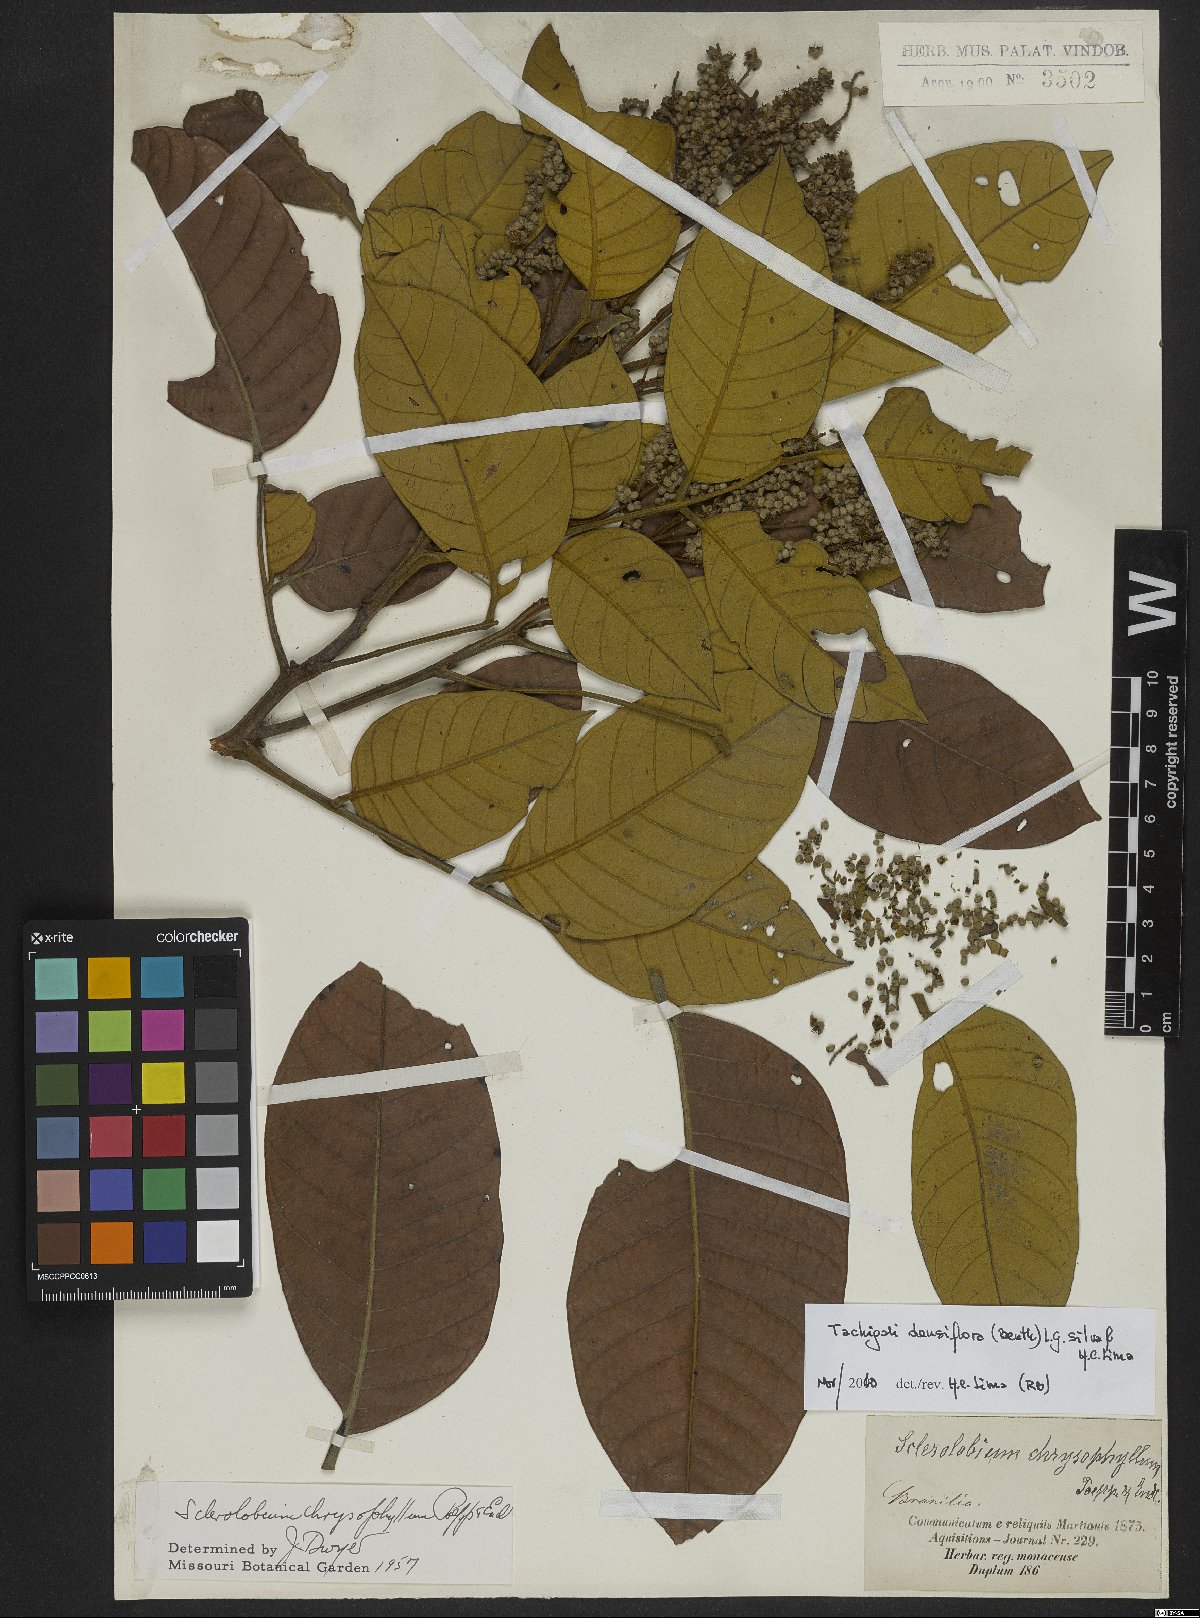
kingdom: Plantae
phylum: Tracheophyta
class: Magnoliopsida
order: Fabales
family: Fabaceae
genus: Tachigali
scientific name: Tachigali densiflora
